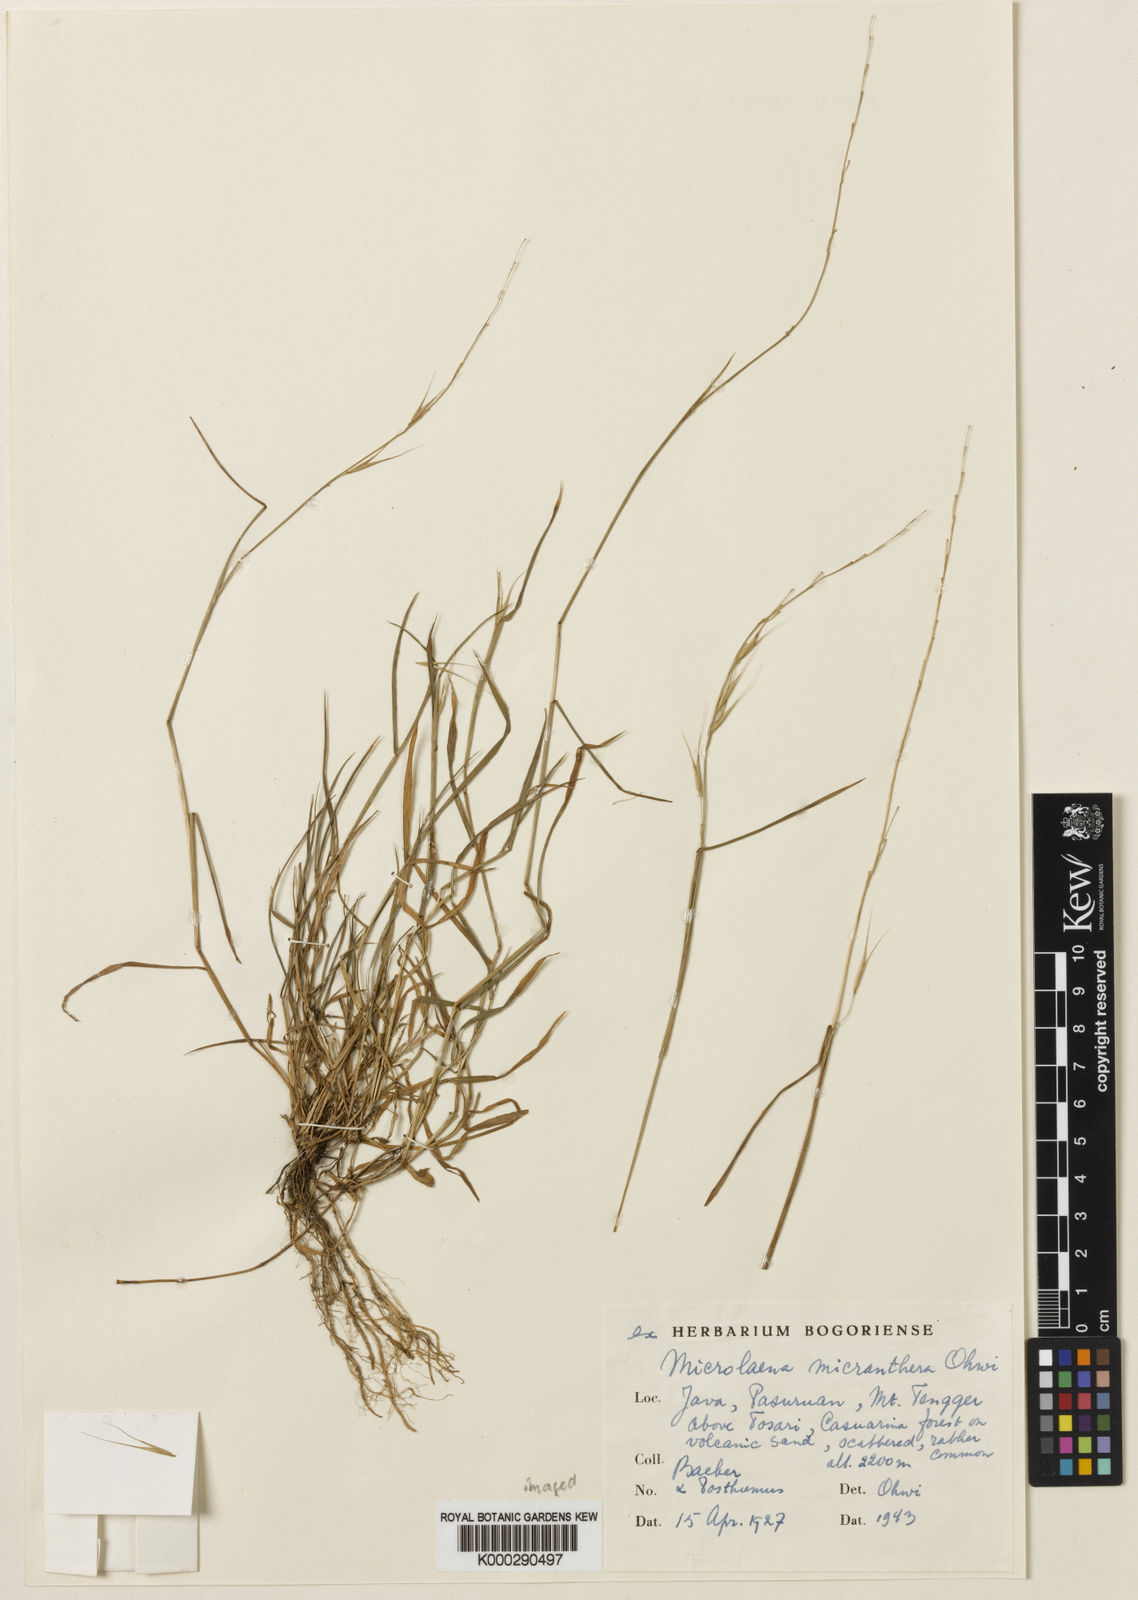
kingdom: Plantae
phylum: Tracheophyta
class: Liliopsida
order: Poales
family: Poaceae
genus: Microlaena
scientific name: Microlaena stipoides
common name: Meadow ricegrass
